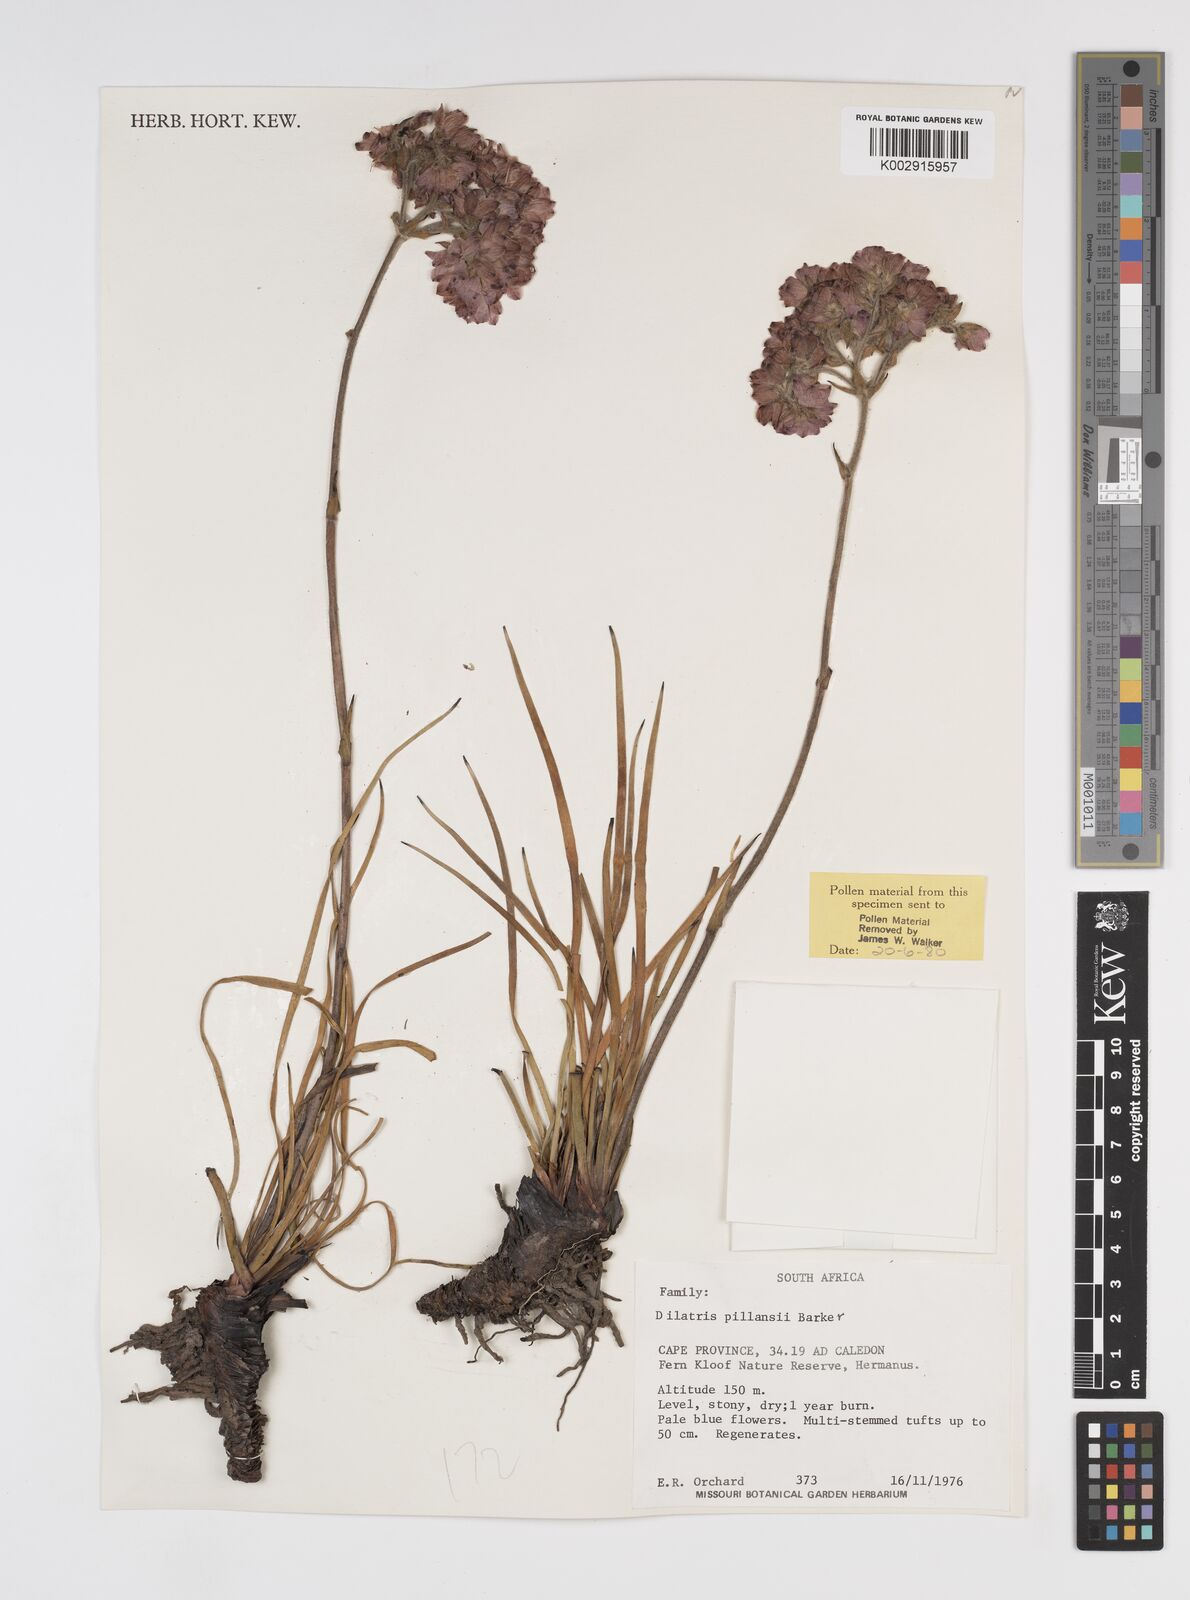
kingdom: Plantae
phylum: Tracheophyta
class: Liliopsida
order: Commelinales
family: Haemodoraceae
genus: Dilatris
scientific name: Dilatris pillansii
